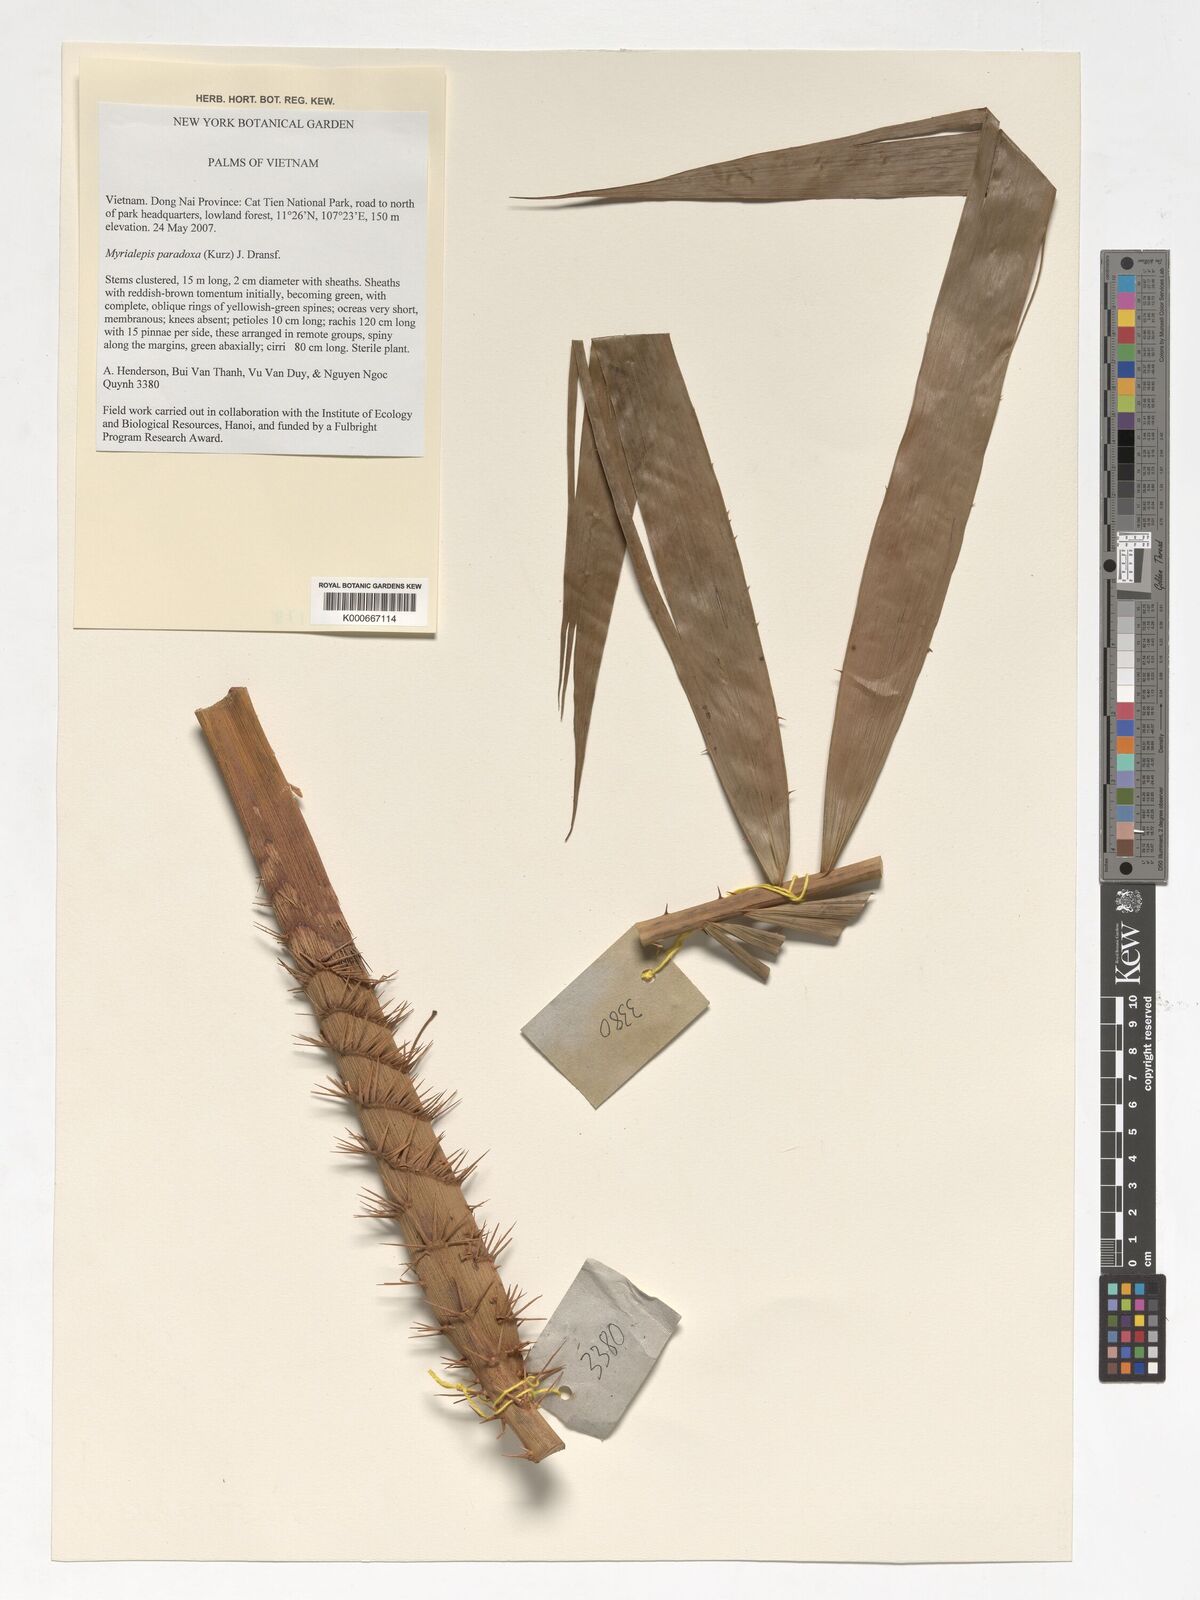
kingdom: Plantae
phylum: Tracheophyta
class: Liliopsida
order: Arecales
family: Arecaceae
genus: Myrialepis
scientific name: Myrialepis paradoxa
